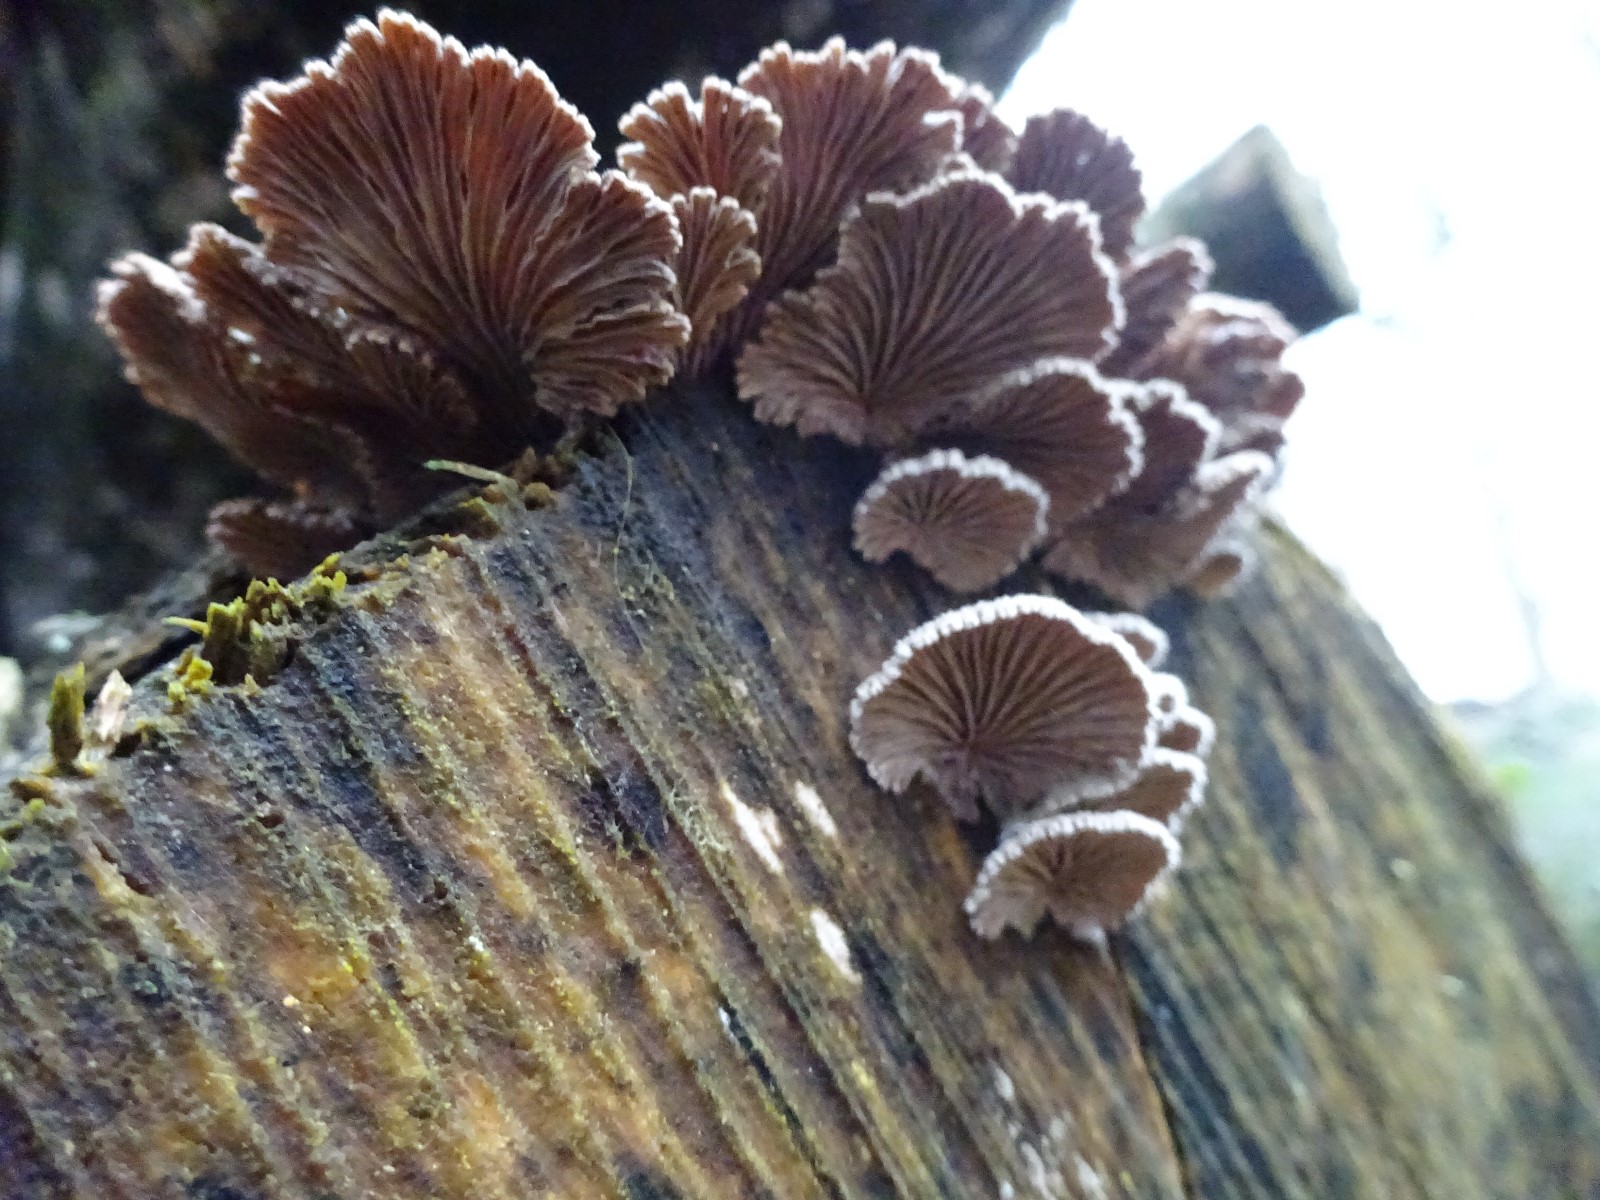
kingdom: Fungi
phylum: Basidiomycota
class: Agaricomycetes
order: Agaricales
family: Schizophyllaceae
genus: Schizophyllum
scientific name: Schizophyllum commune
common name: kløvblad
